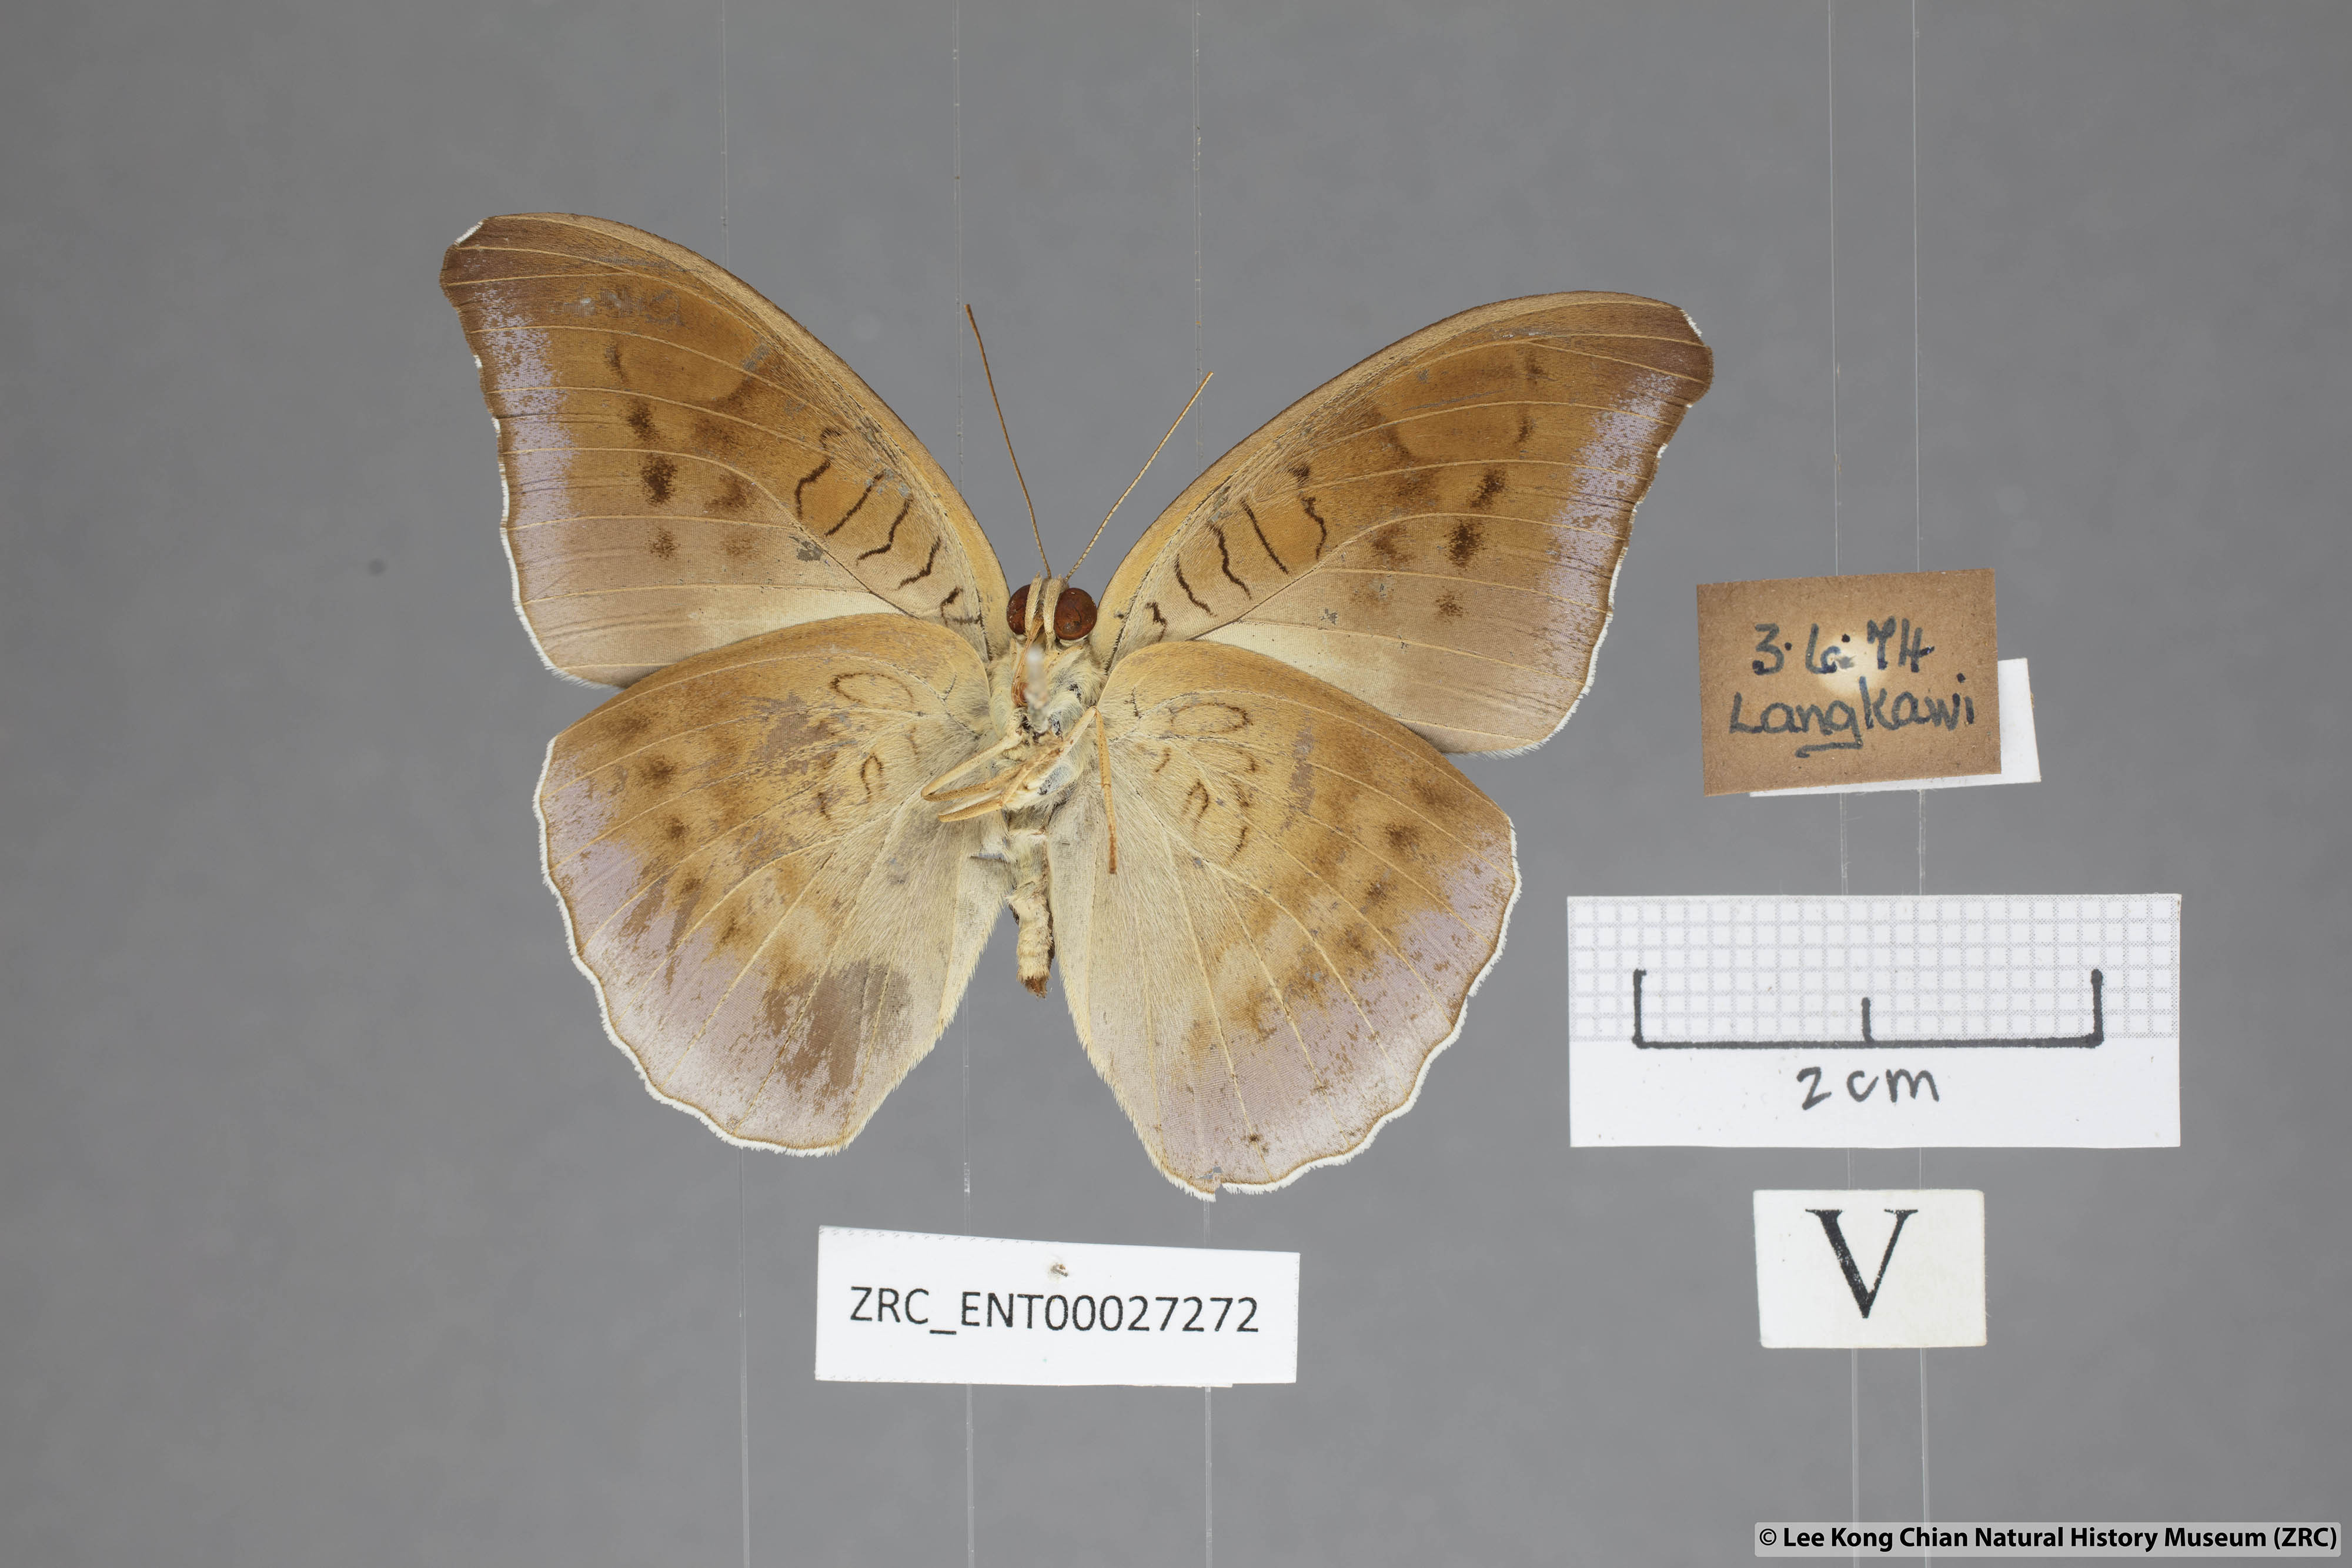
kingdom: Animalia
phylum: Arthropoda
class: Insecta
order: Lepidoptera
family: Nymphalidae
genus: Tanaecia
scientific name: Tanaecia flora
